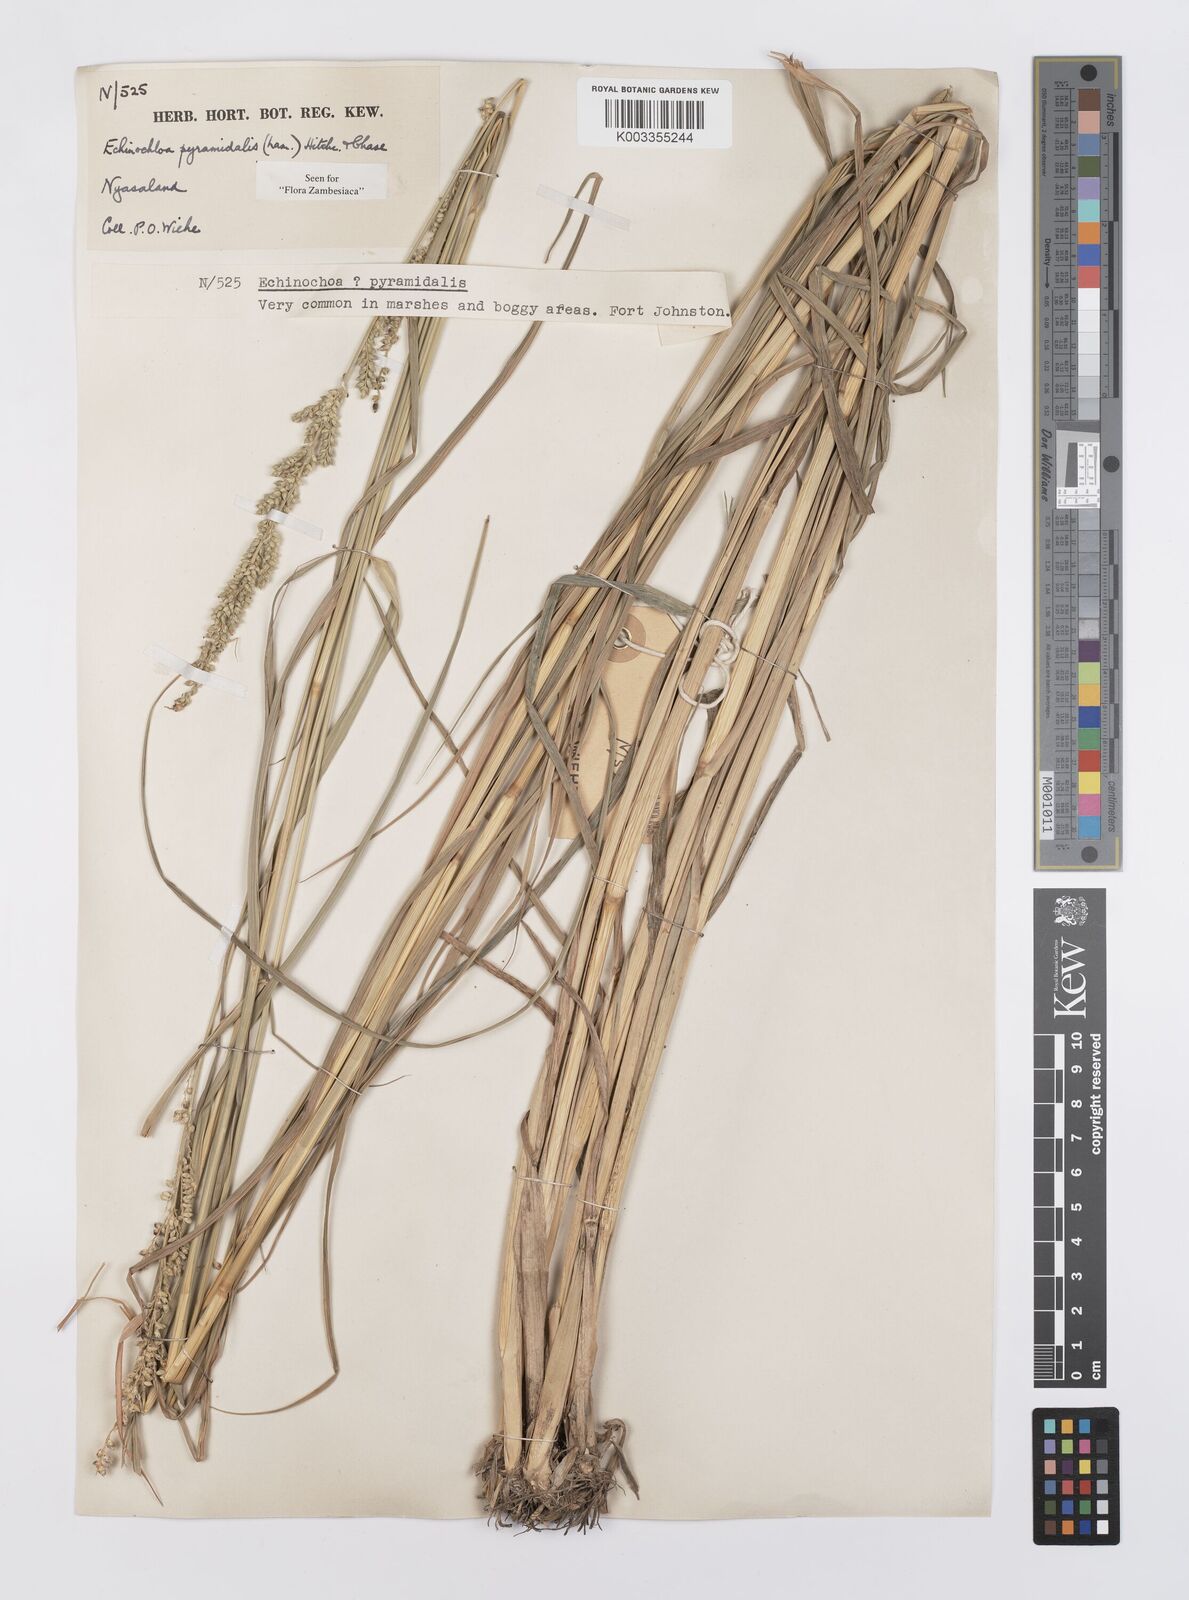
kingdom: Plantae
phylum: Tracheophyta
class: Liliopsida
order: Poales
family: Poaceae
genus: Echinochloa
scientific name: Echinochloa pyramidalis
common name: Antelope grass
